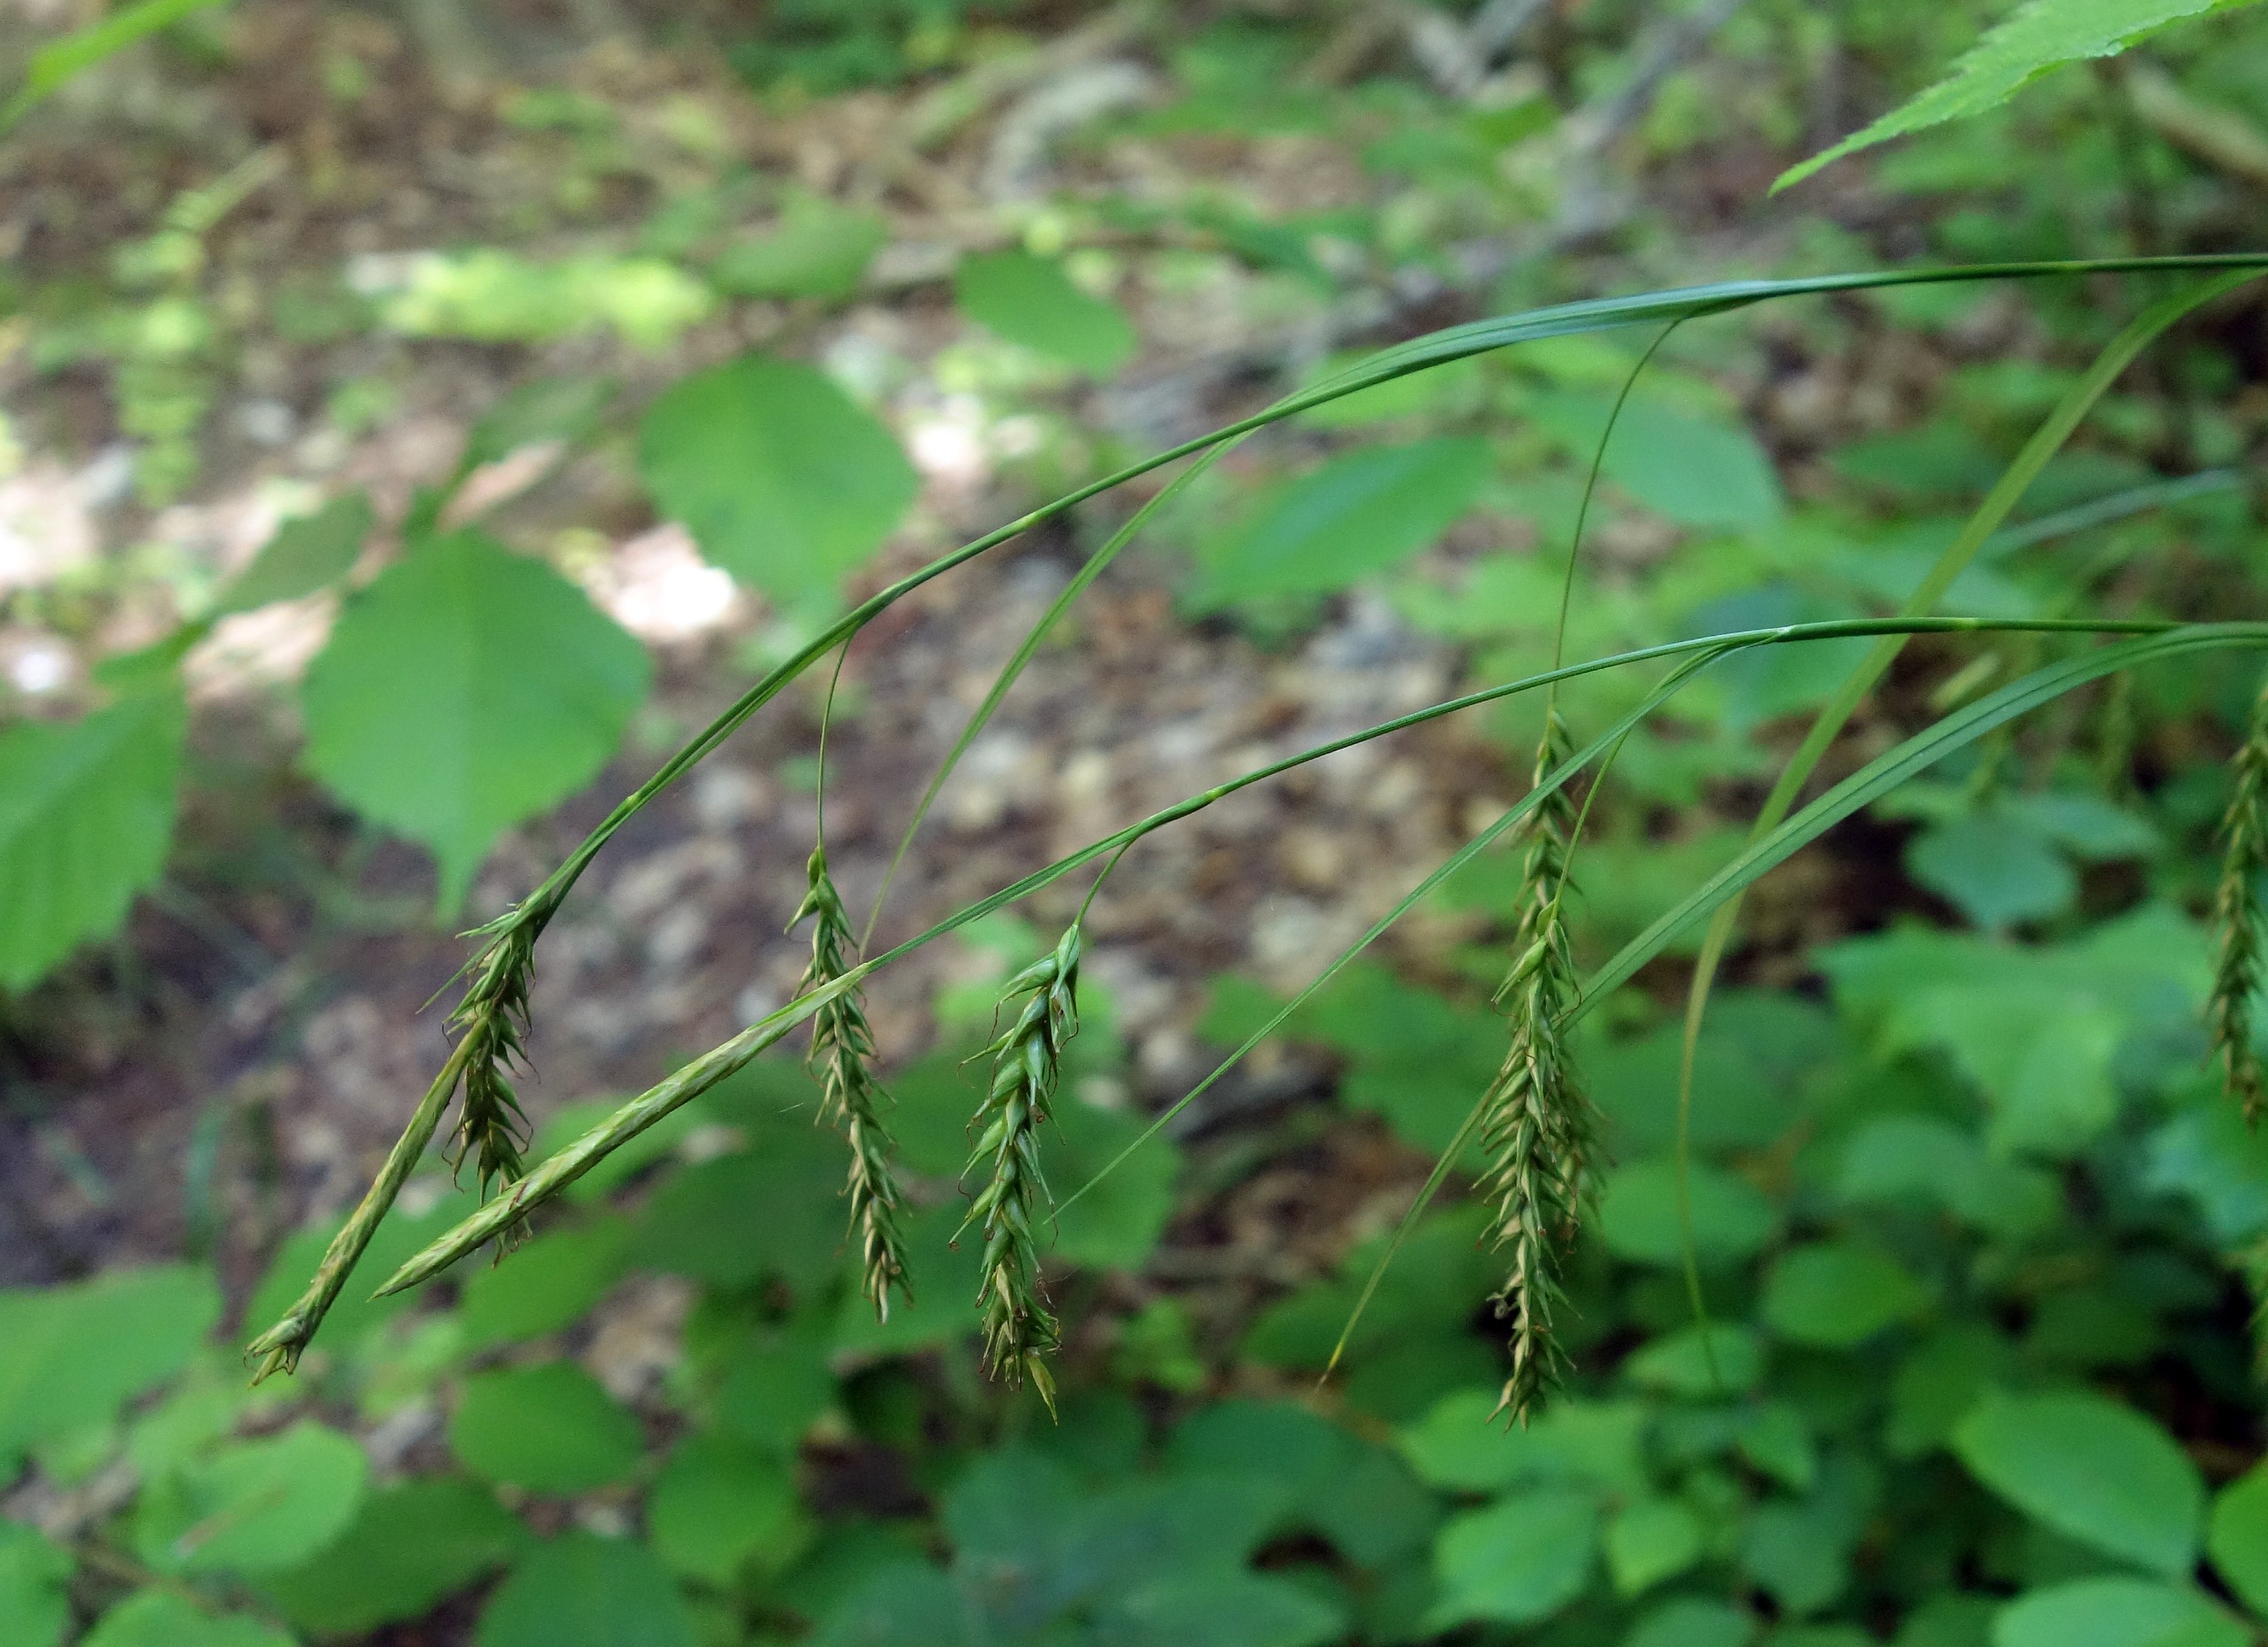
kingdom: Plantae
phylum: Tracheophyta
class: Liliopsida
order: Poales
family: Cyperaceae
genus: Carex
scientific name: Carex sylvatica
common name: Skov-star
